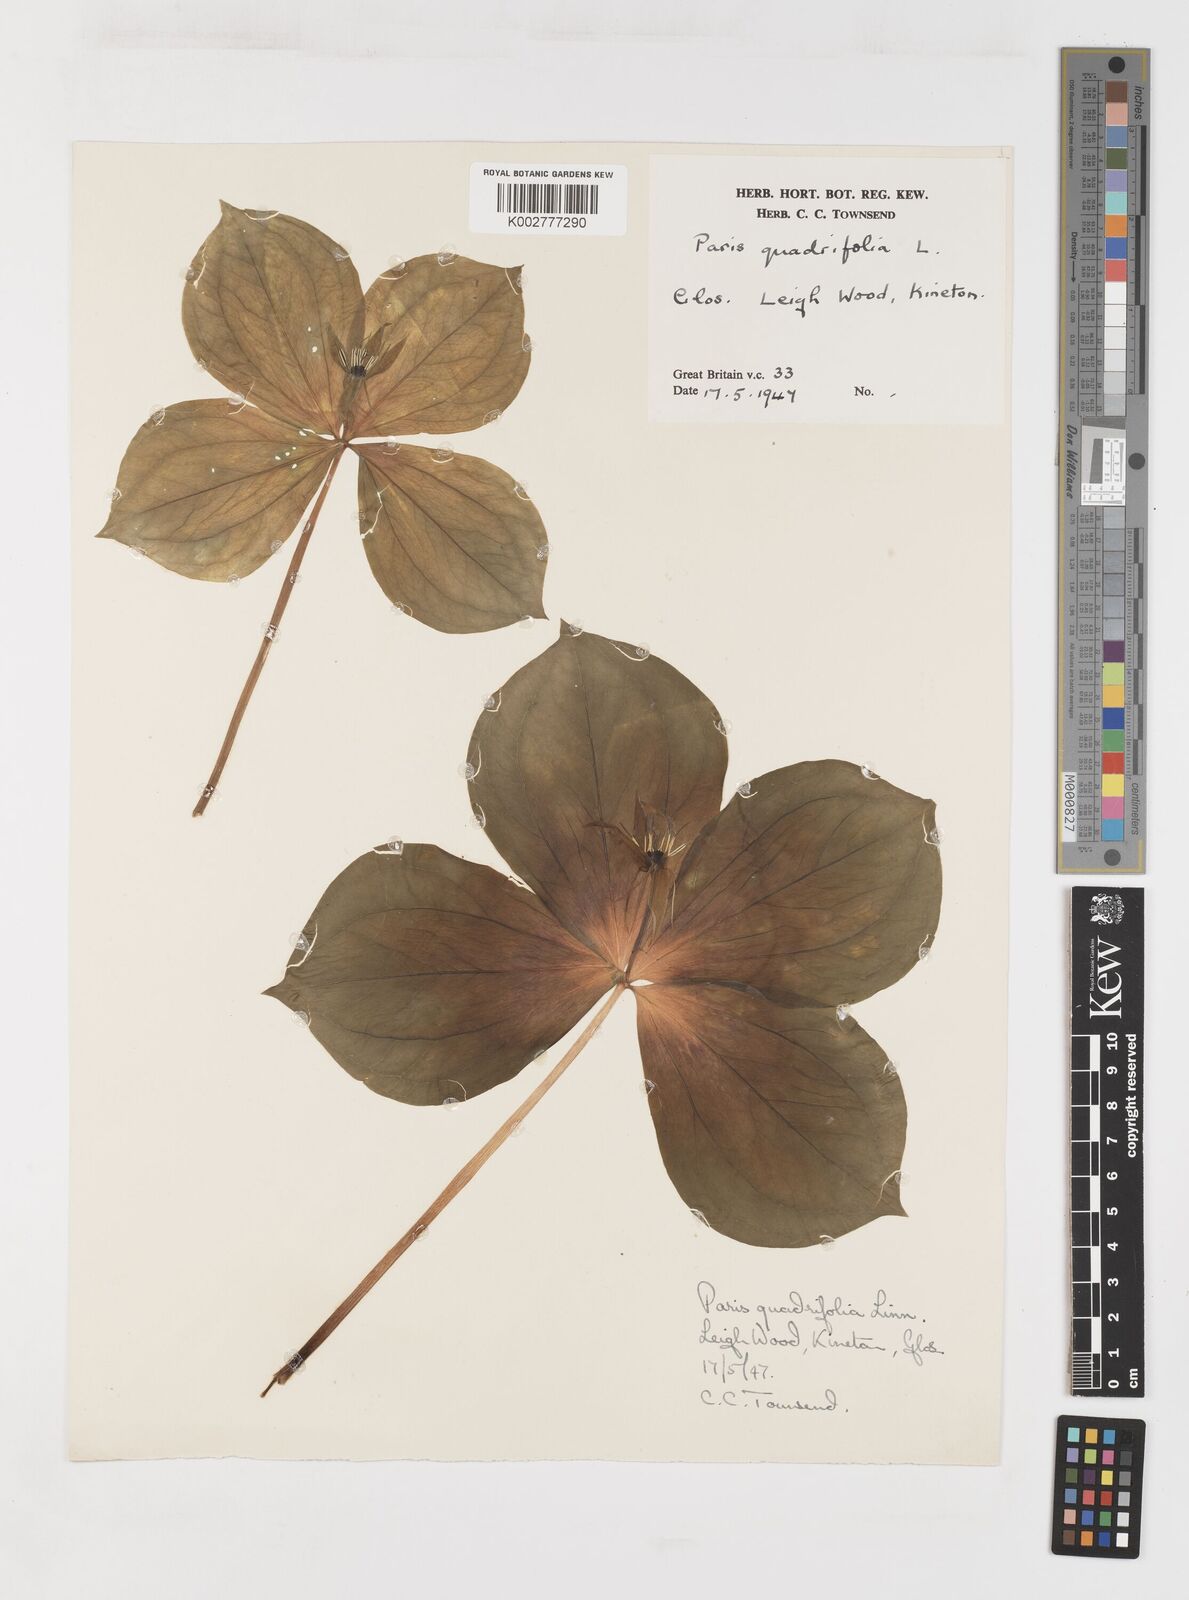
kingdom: Plantae
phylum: Tracheophyta
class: Liliopsida
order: Liliales
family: Melanthiaceae
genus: Paris
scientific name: Paris quadrifolia
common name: Herb-paris
